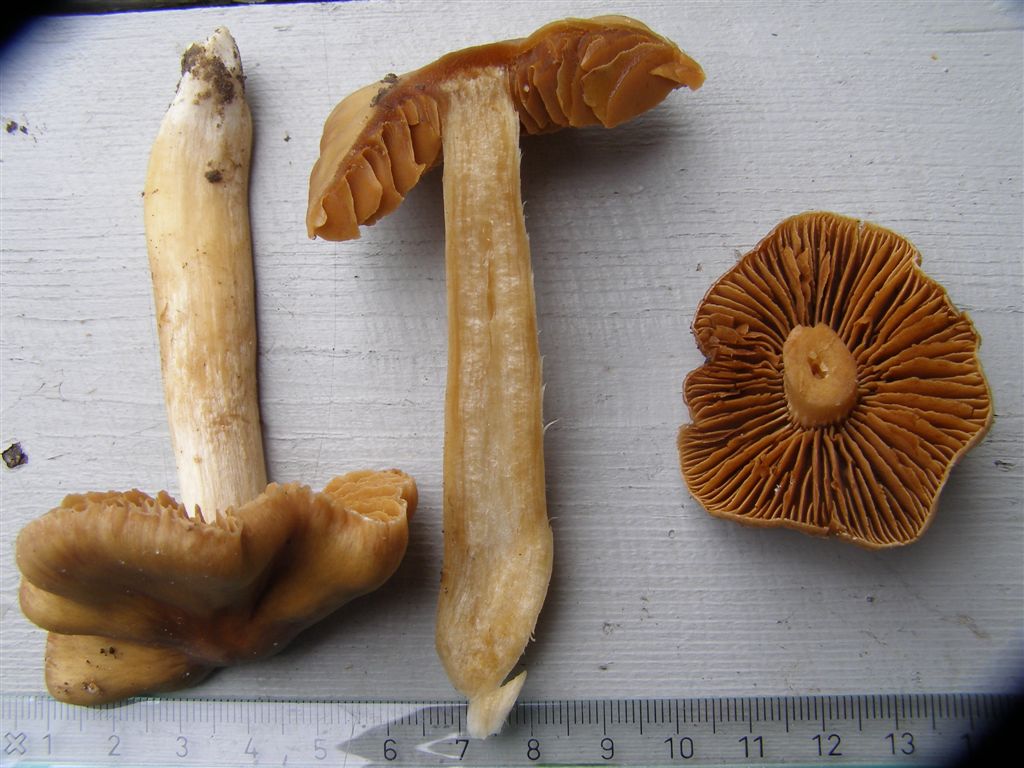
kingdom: Fungi
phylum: Basidiomycota
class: Agaricomycetes
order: Agaricales
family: Cortinariaceae
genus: Cortinarius
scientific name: Cortinarius
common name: jod-slørhat
